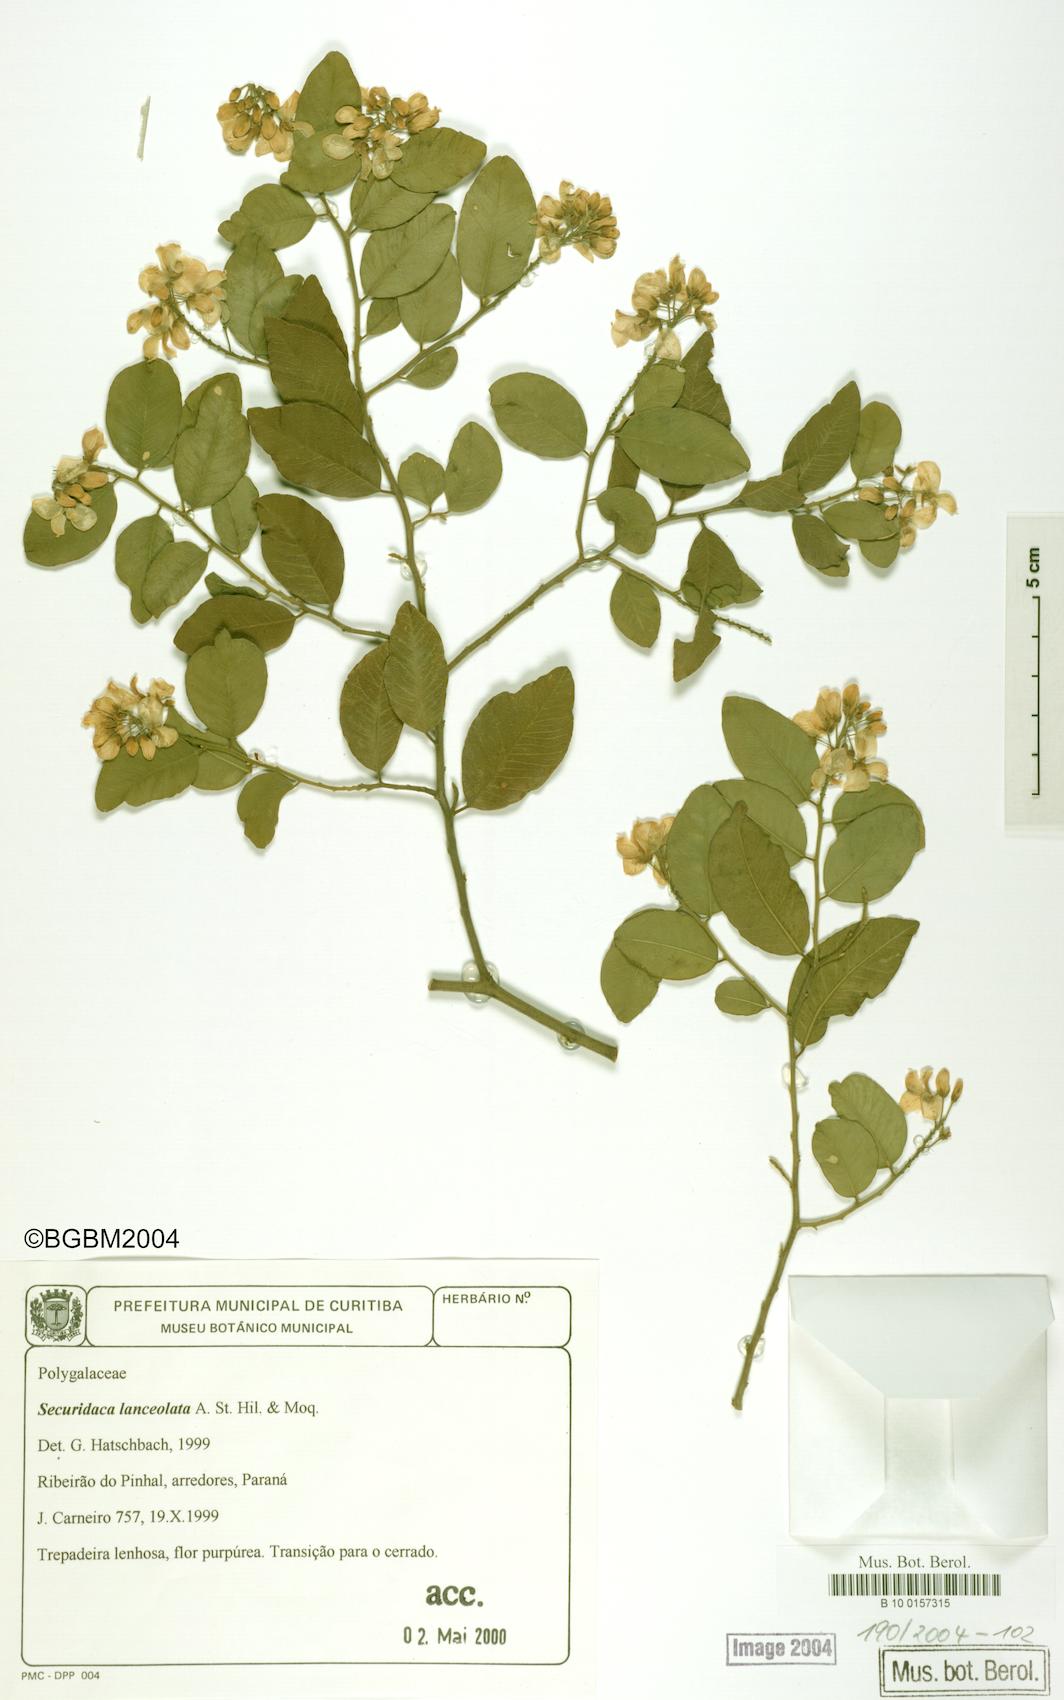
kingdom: Plantae
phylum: Tracheophyta
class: Magnoliopsida
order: Fabales
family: Polygalaceae
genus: Securidaca
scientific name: Securidaca lanceolata
